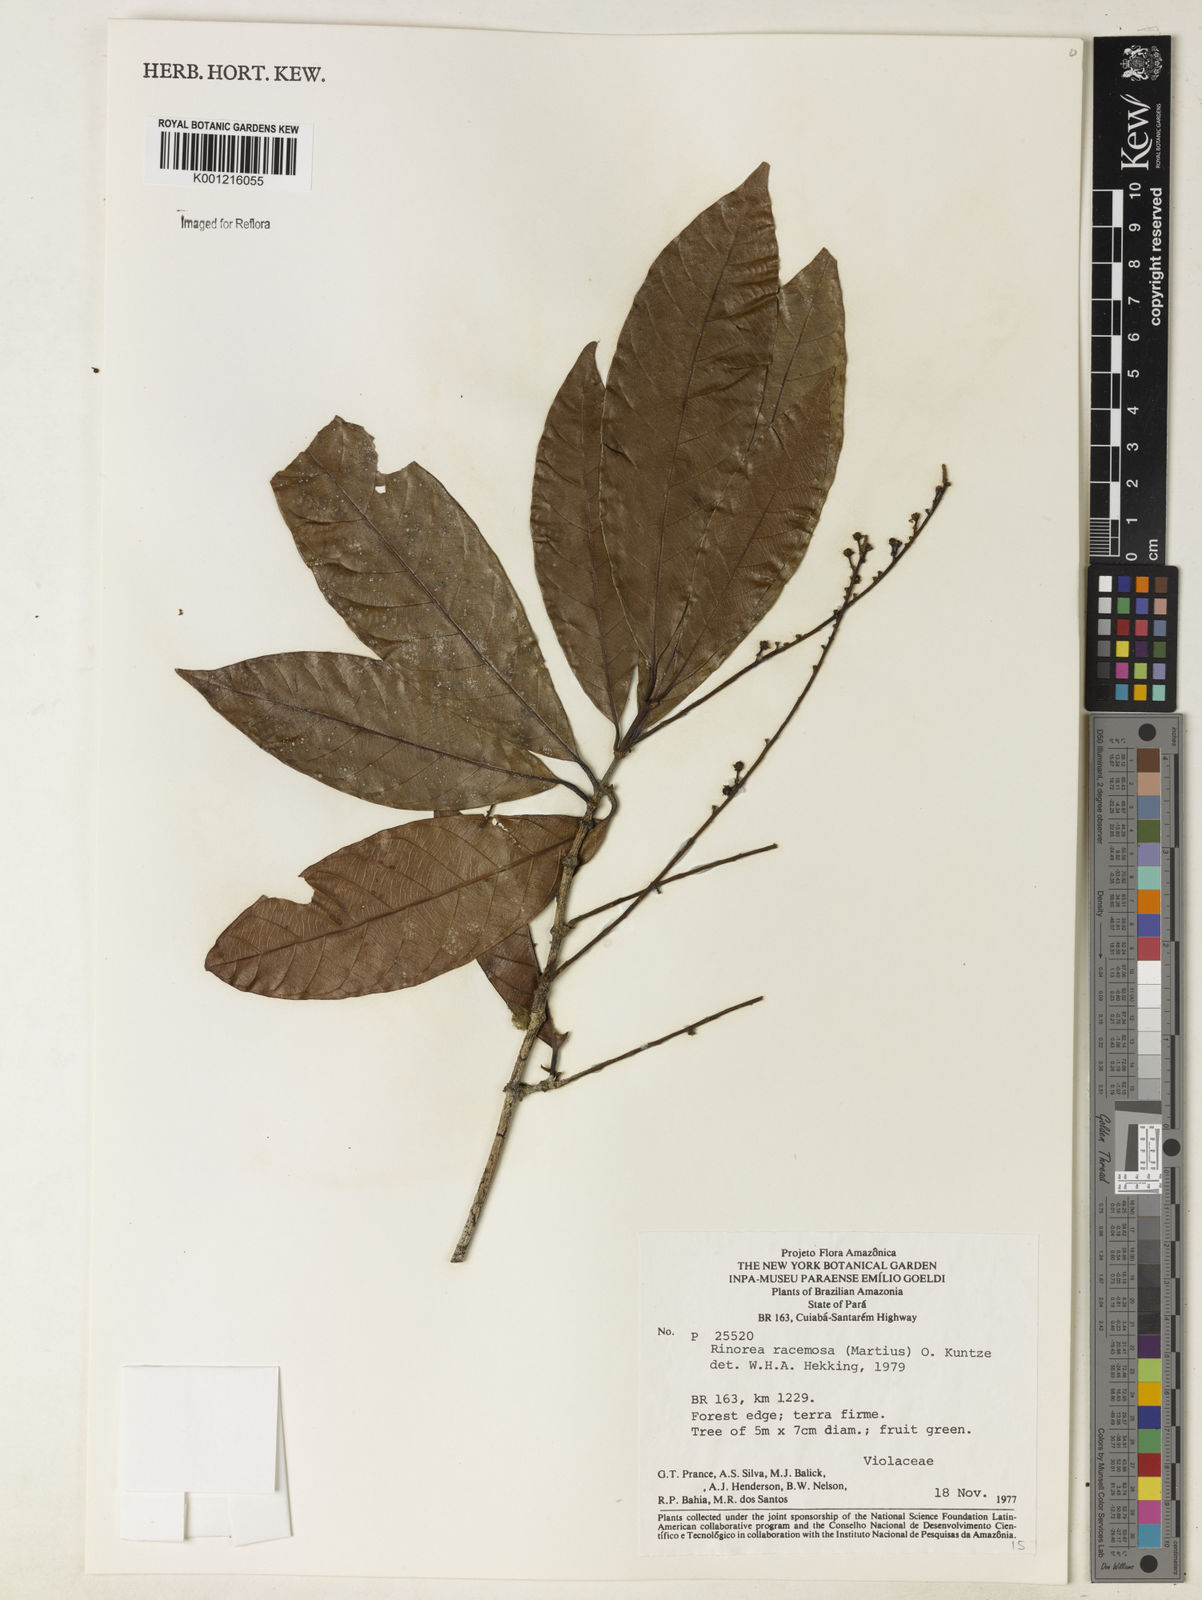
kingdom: Plantae
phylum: Tracheophyta
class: Magnoliopsida
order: Malpighiales
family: Violaceae
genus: Rinorea
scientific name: Rinorea racemosa
